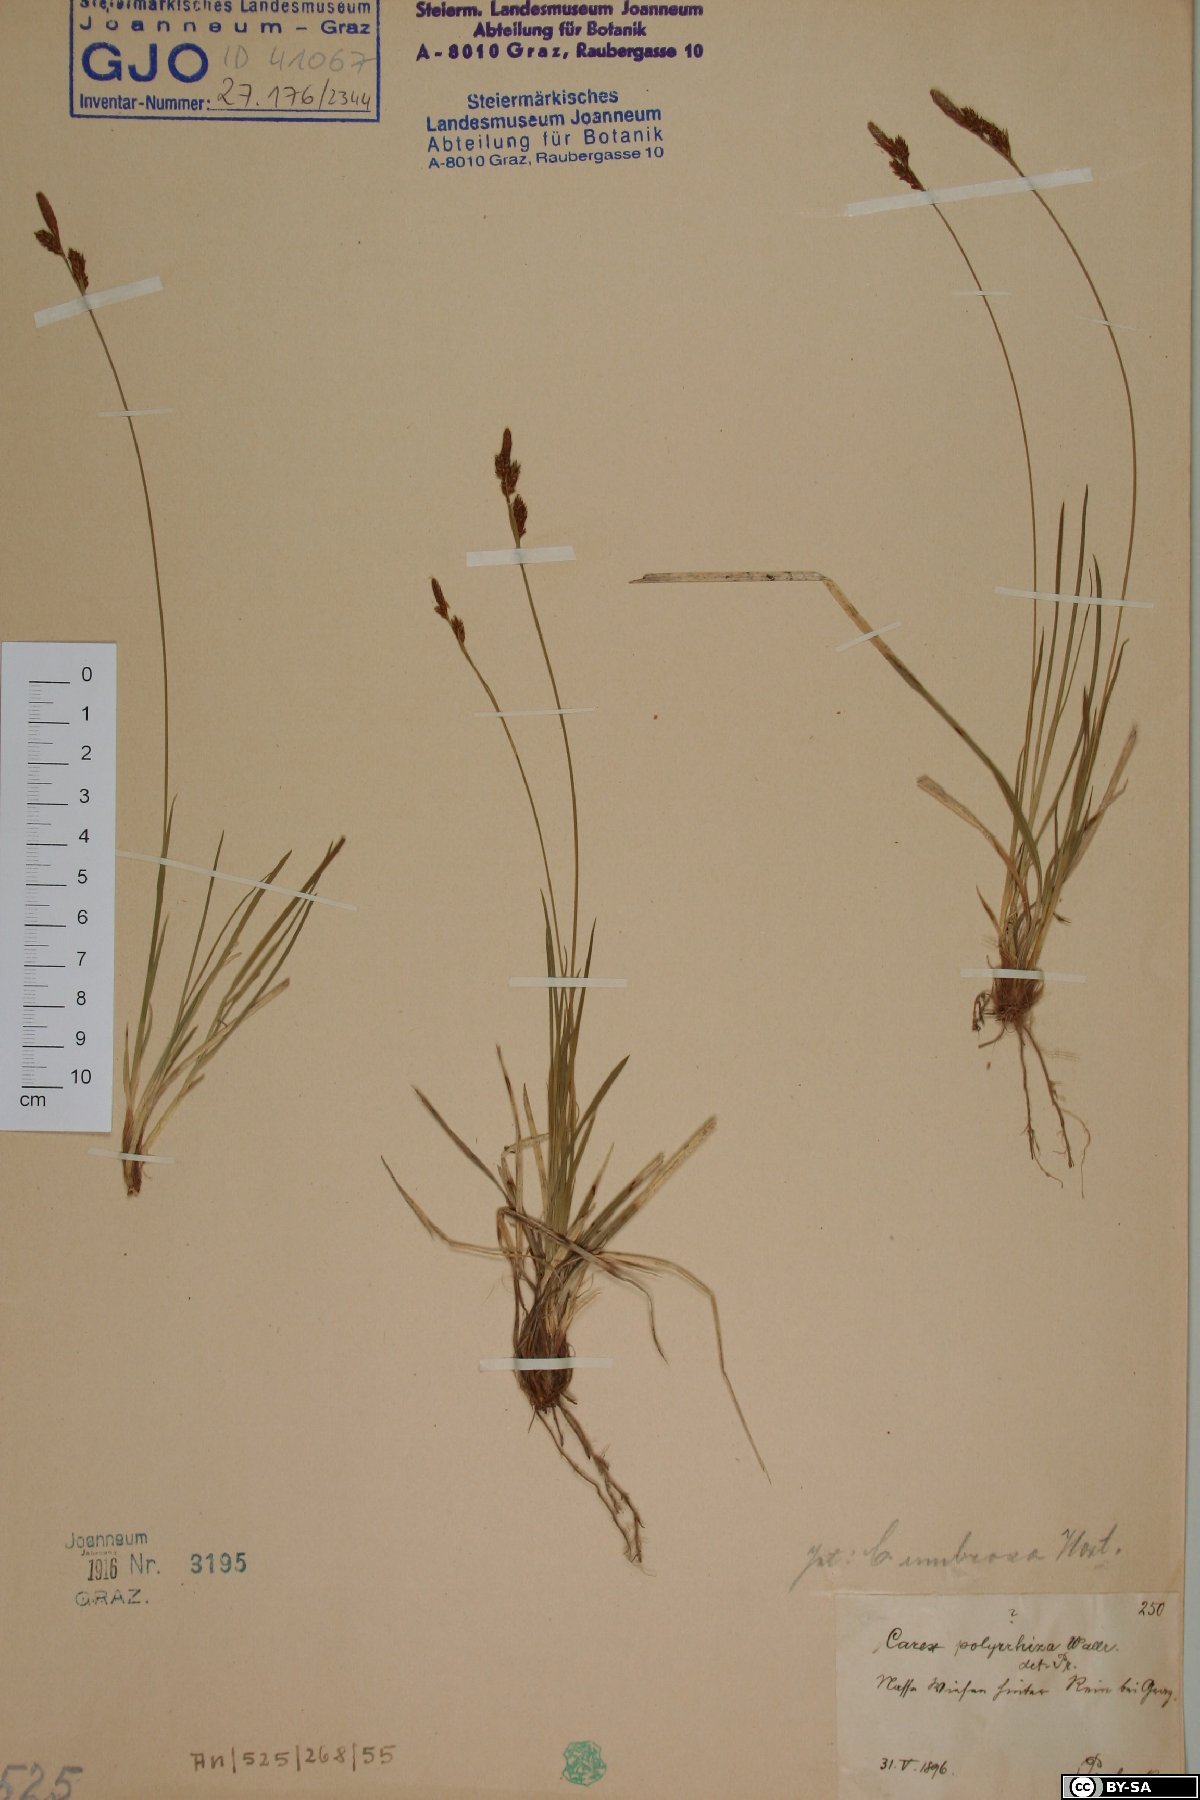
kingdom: Plantae
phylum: Tracheophyta
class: Liliopsida
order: Poales
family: Cyperaceae
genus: Carex
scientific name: Carex umbrosa
